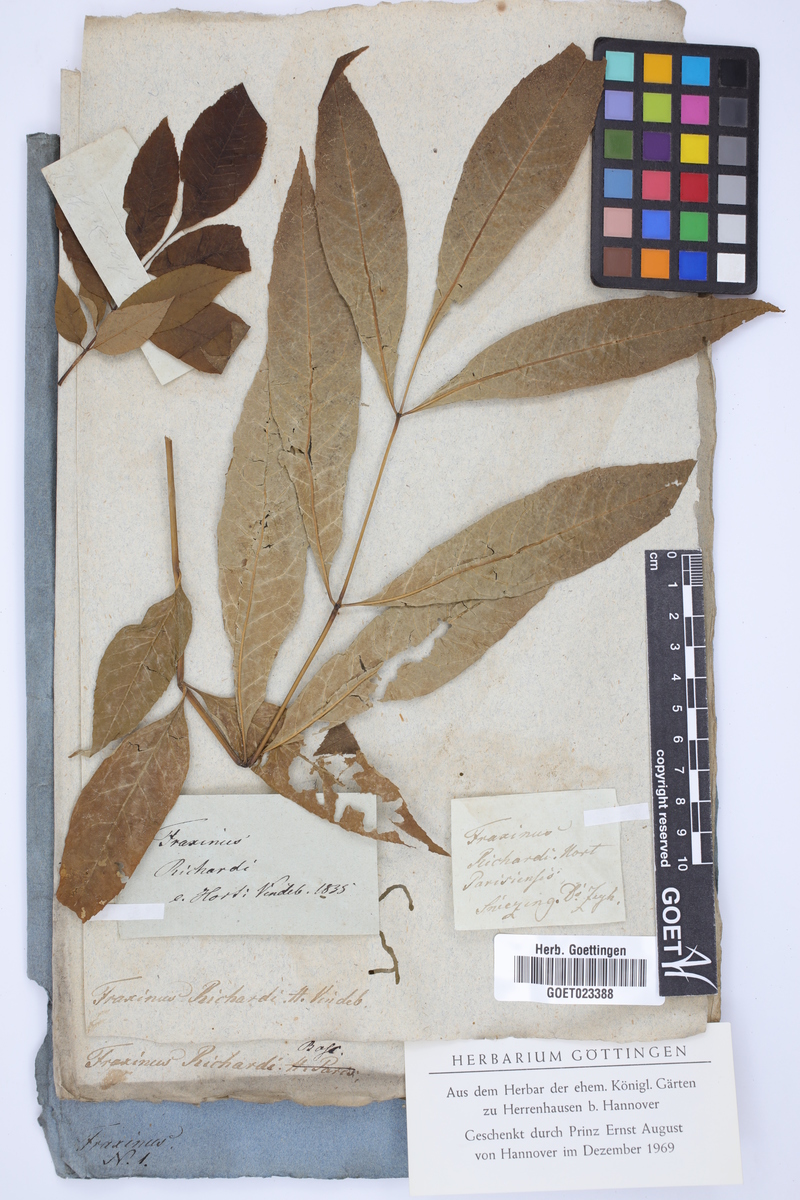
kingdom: Plantae
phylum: Tracheophyta
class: Magnoliopsida
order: Lamiales
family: Oleaceae
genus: Fraxinus
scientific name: Fraxinus pennsylvanica
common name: Green ash
